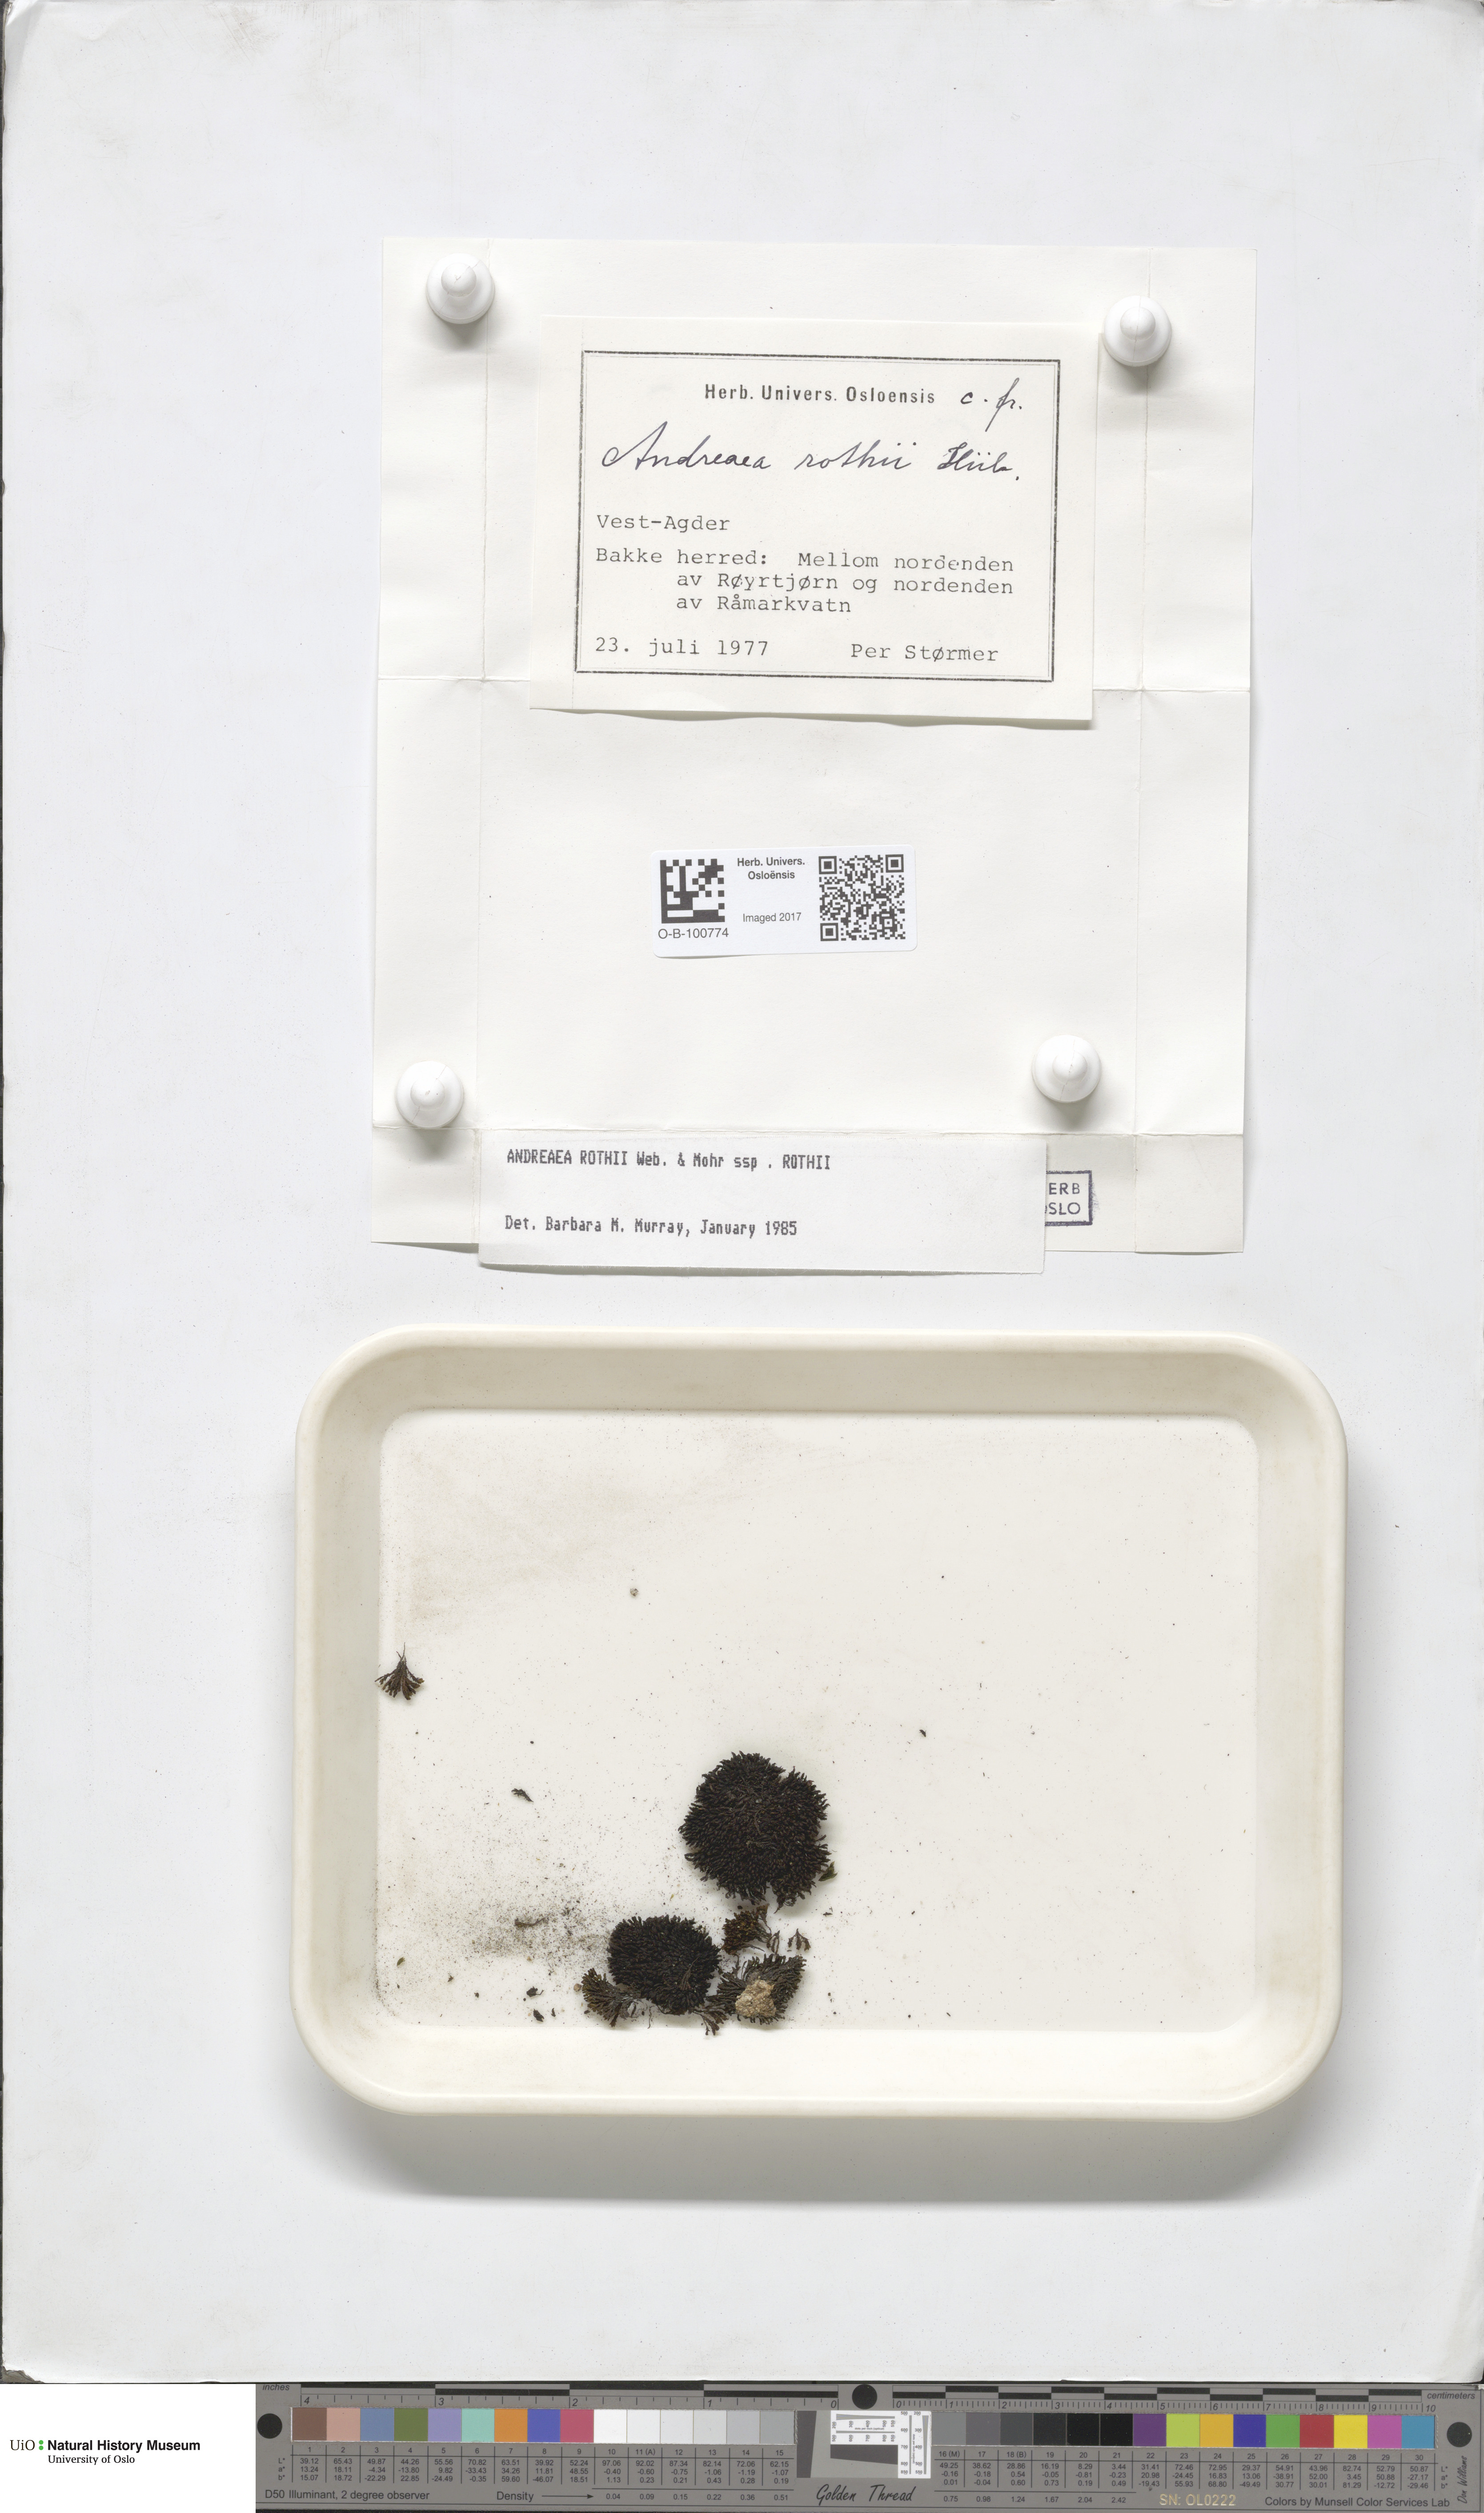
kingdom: Plantae
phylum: Bryophyta
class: Andreaeopsida
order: Andreaeales
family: Andreaeaceae
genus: Andreaea
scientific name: Andreaea rothii
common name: Dusky rock moss
